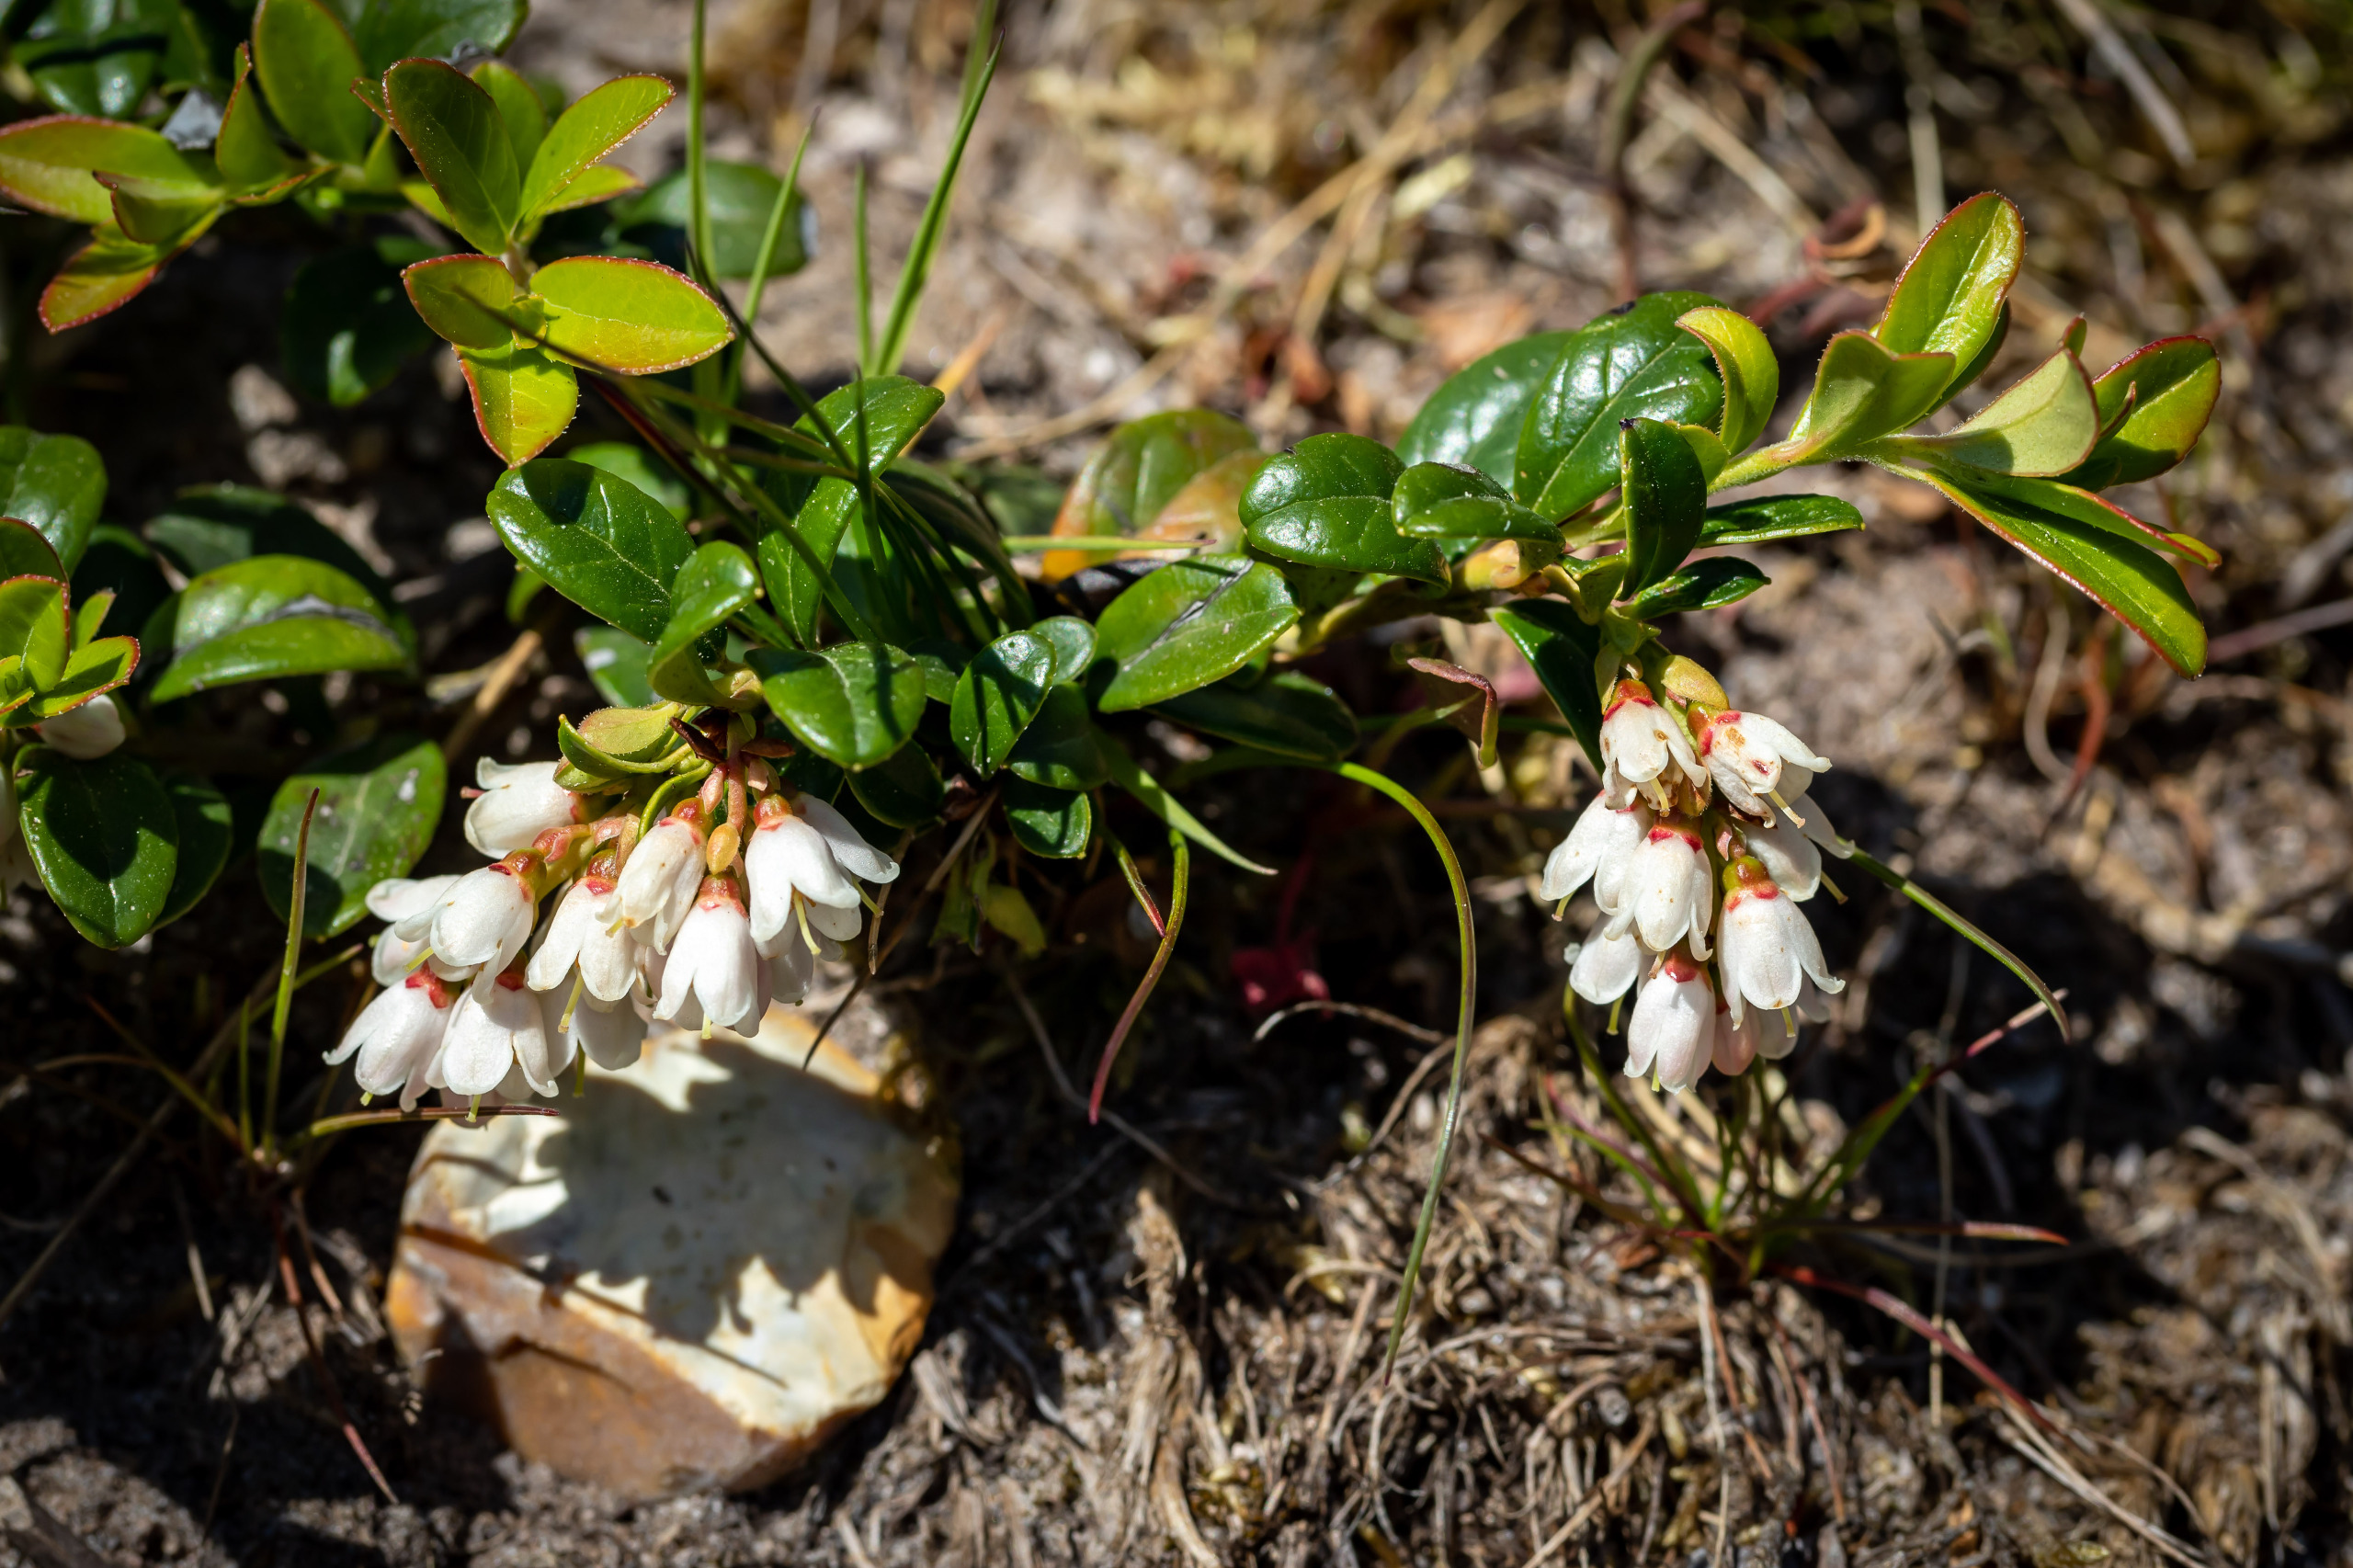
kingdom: Plantae
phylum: Tracheophyta
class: Magnoliopsida
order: Ericales
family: Ericaceae
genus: Vaccinium
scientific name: Vaccinium vitis-idaea
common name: Tyttebær
